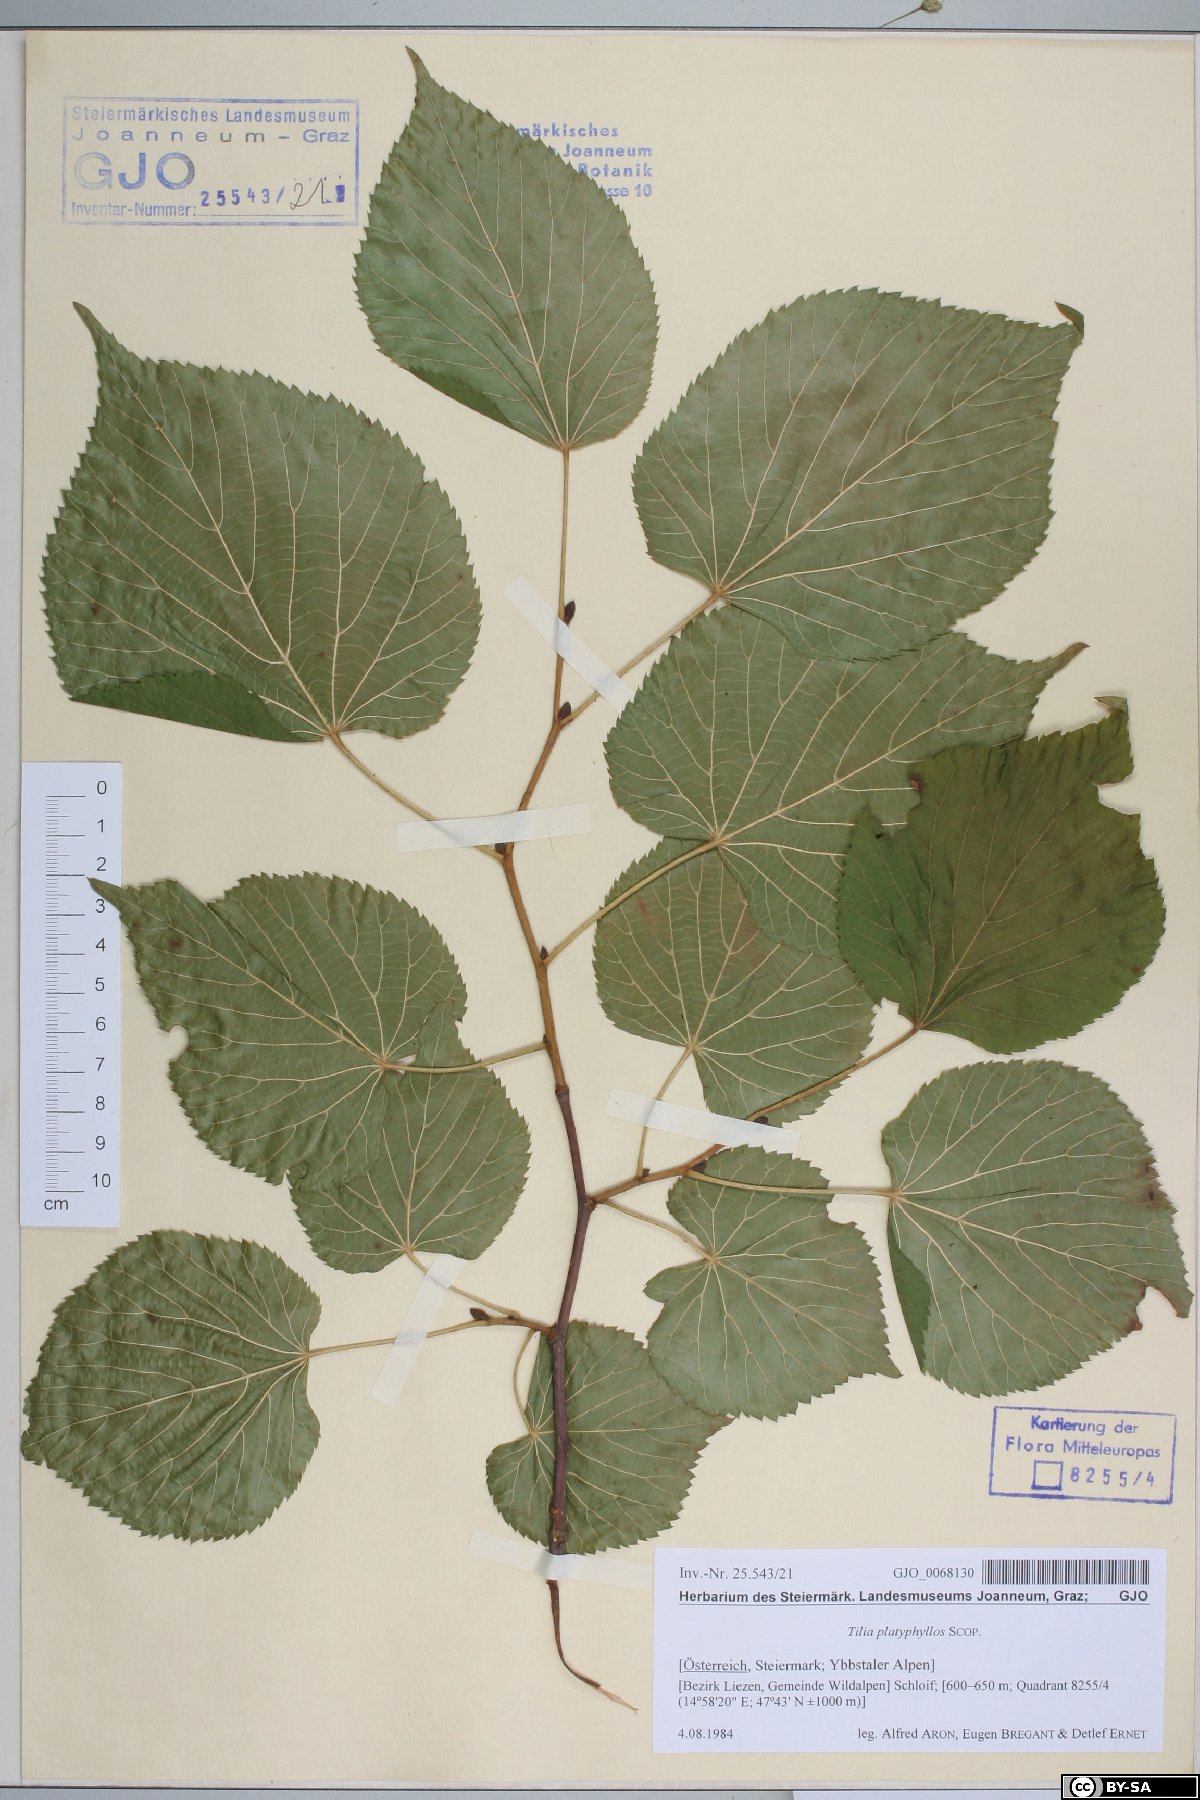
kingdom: Plantae
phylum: Tracheophyta
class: Magnoliopsida
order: Malvales
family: Malvaceae
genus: Tilia
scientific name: Tilia platyphyllos
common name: Large-leaved lime
